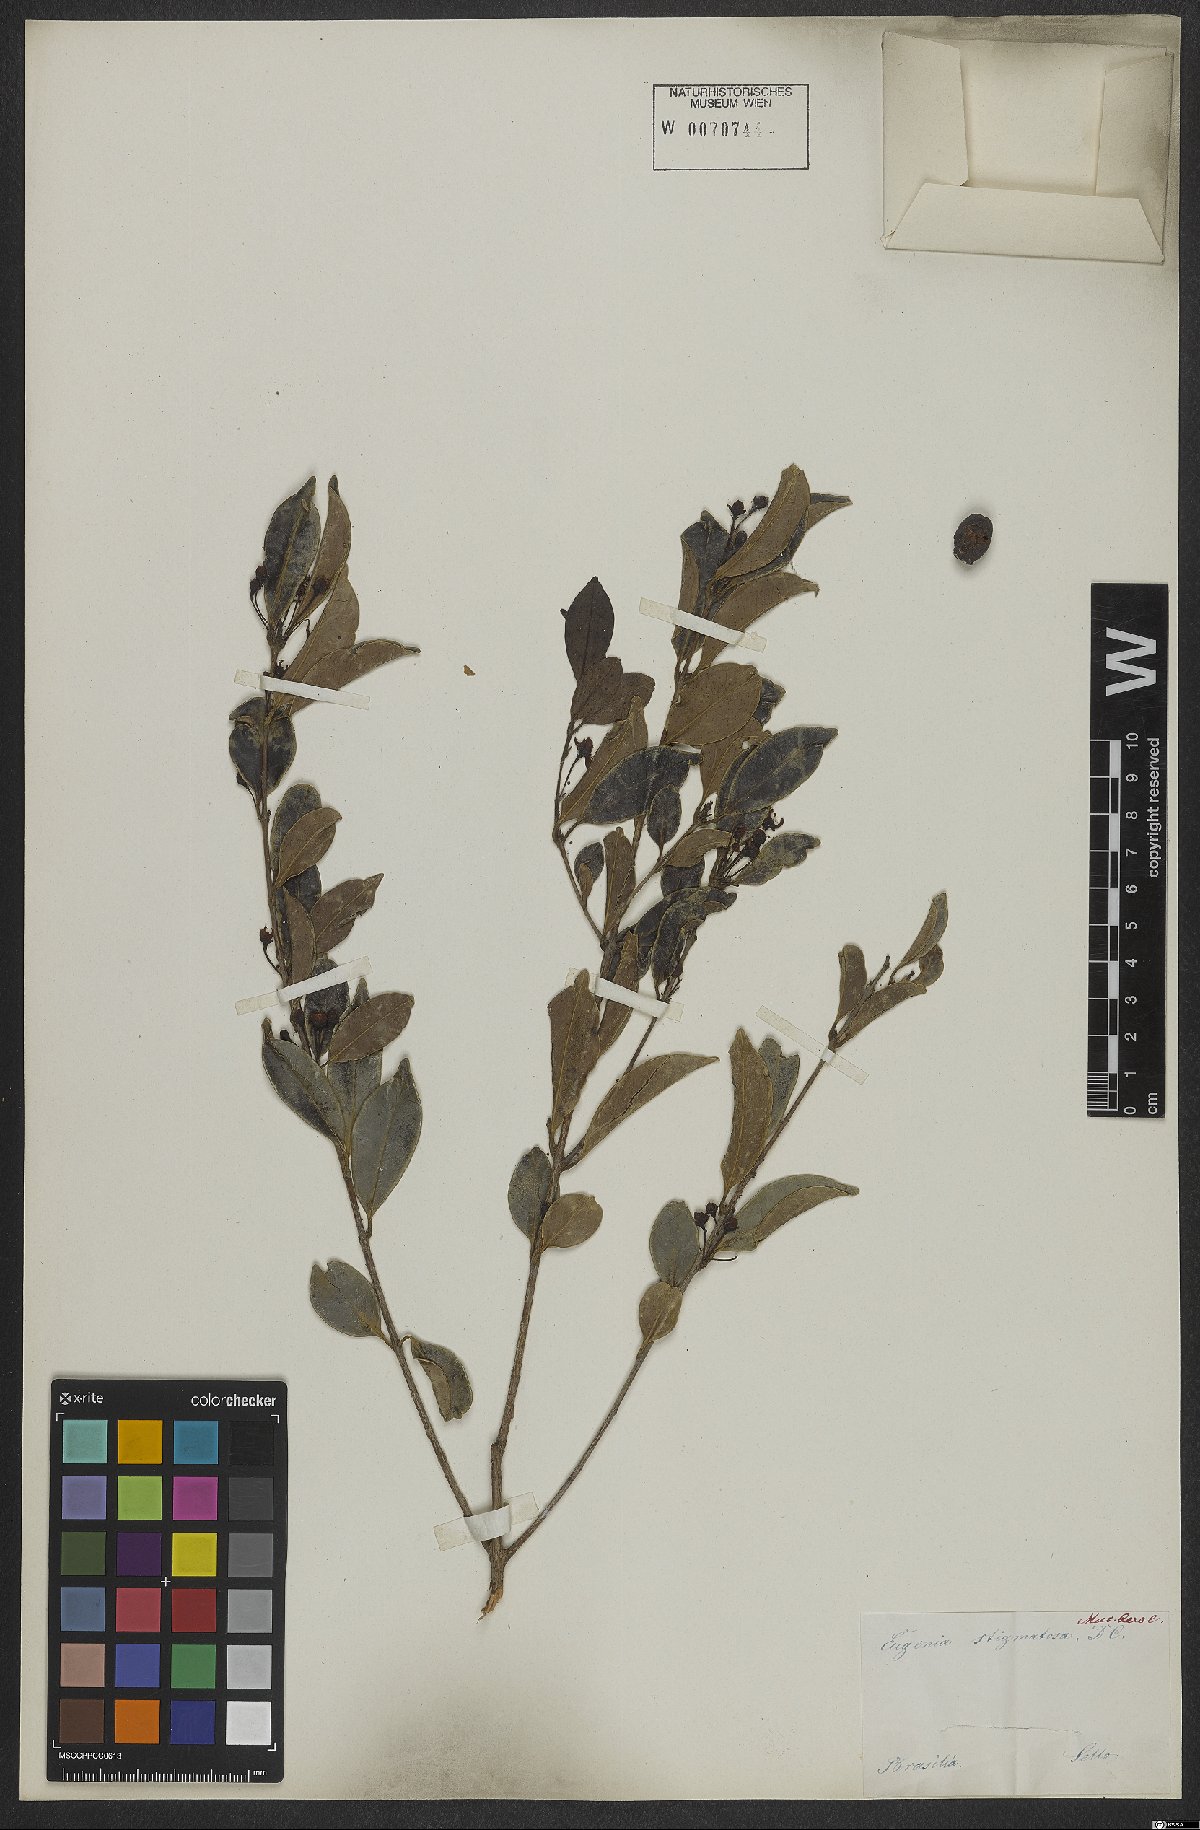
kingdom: Plantae
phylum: Tracheophyta
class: Magnoliopsida
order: Myrtales
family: Myrtaceae
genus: Eugenia
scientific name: Eugenia stigmatosa
